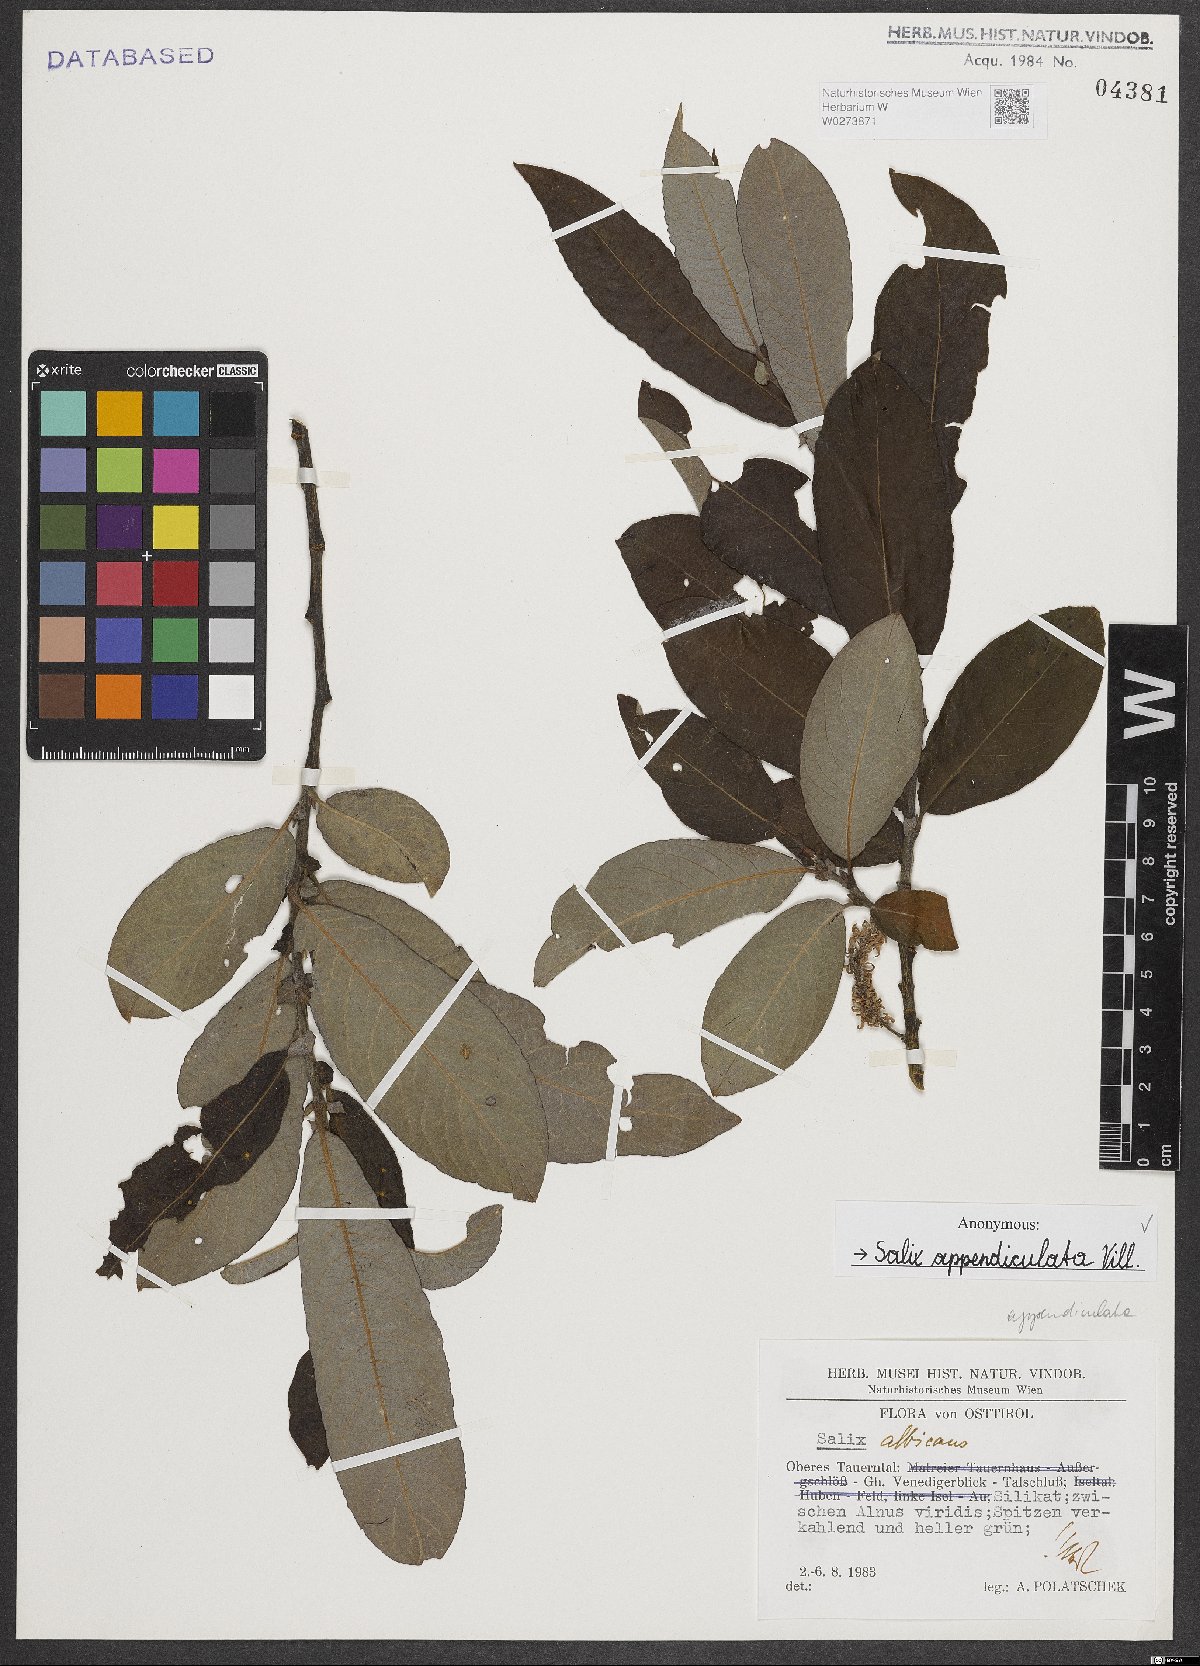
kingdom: Plantae
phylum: Tracheophyta
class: Magnoliopsida
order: Malpighiales
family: Salicaceae
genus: Salix
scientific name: Salix appendiculata
